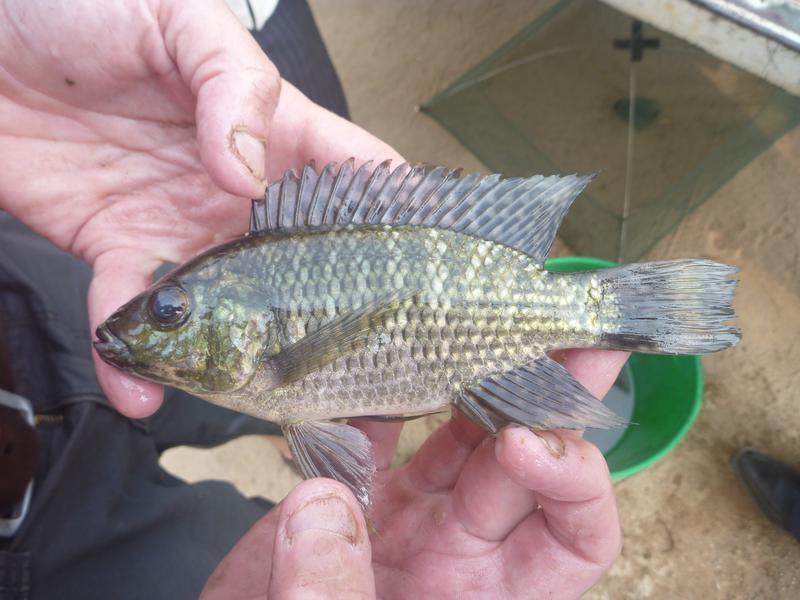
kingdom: Animalia
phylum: Chordata
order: Perciformes
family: Cichlidae
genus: Oreochromis
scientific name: Oreochromis leucostictus
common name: Blue spotted tilapia
